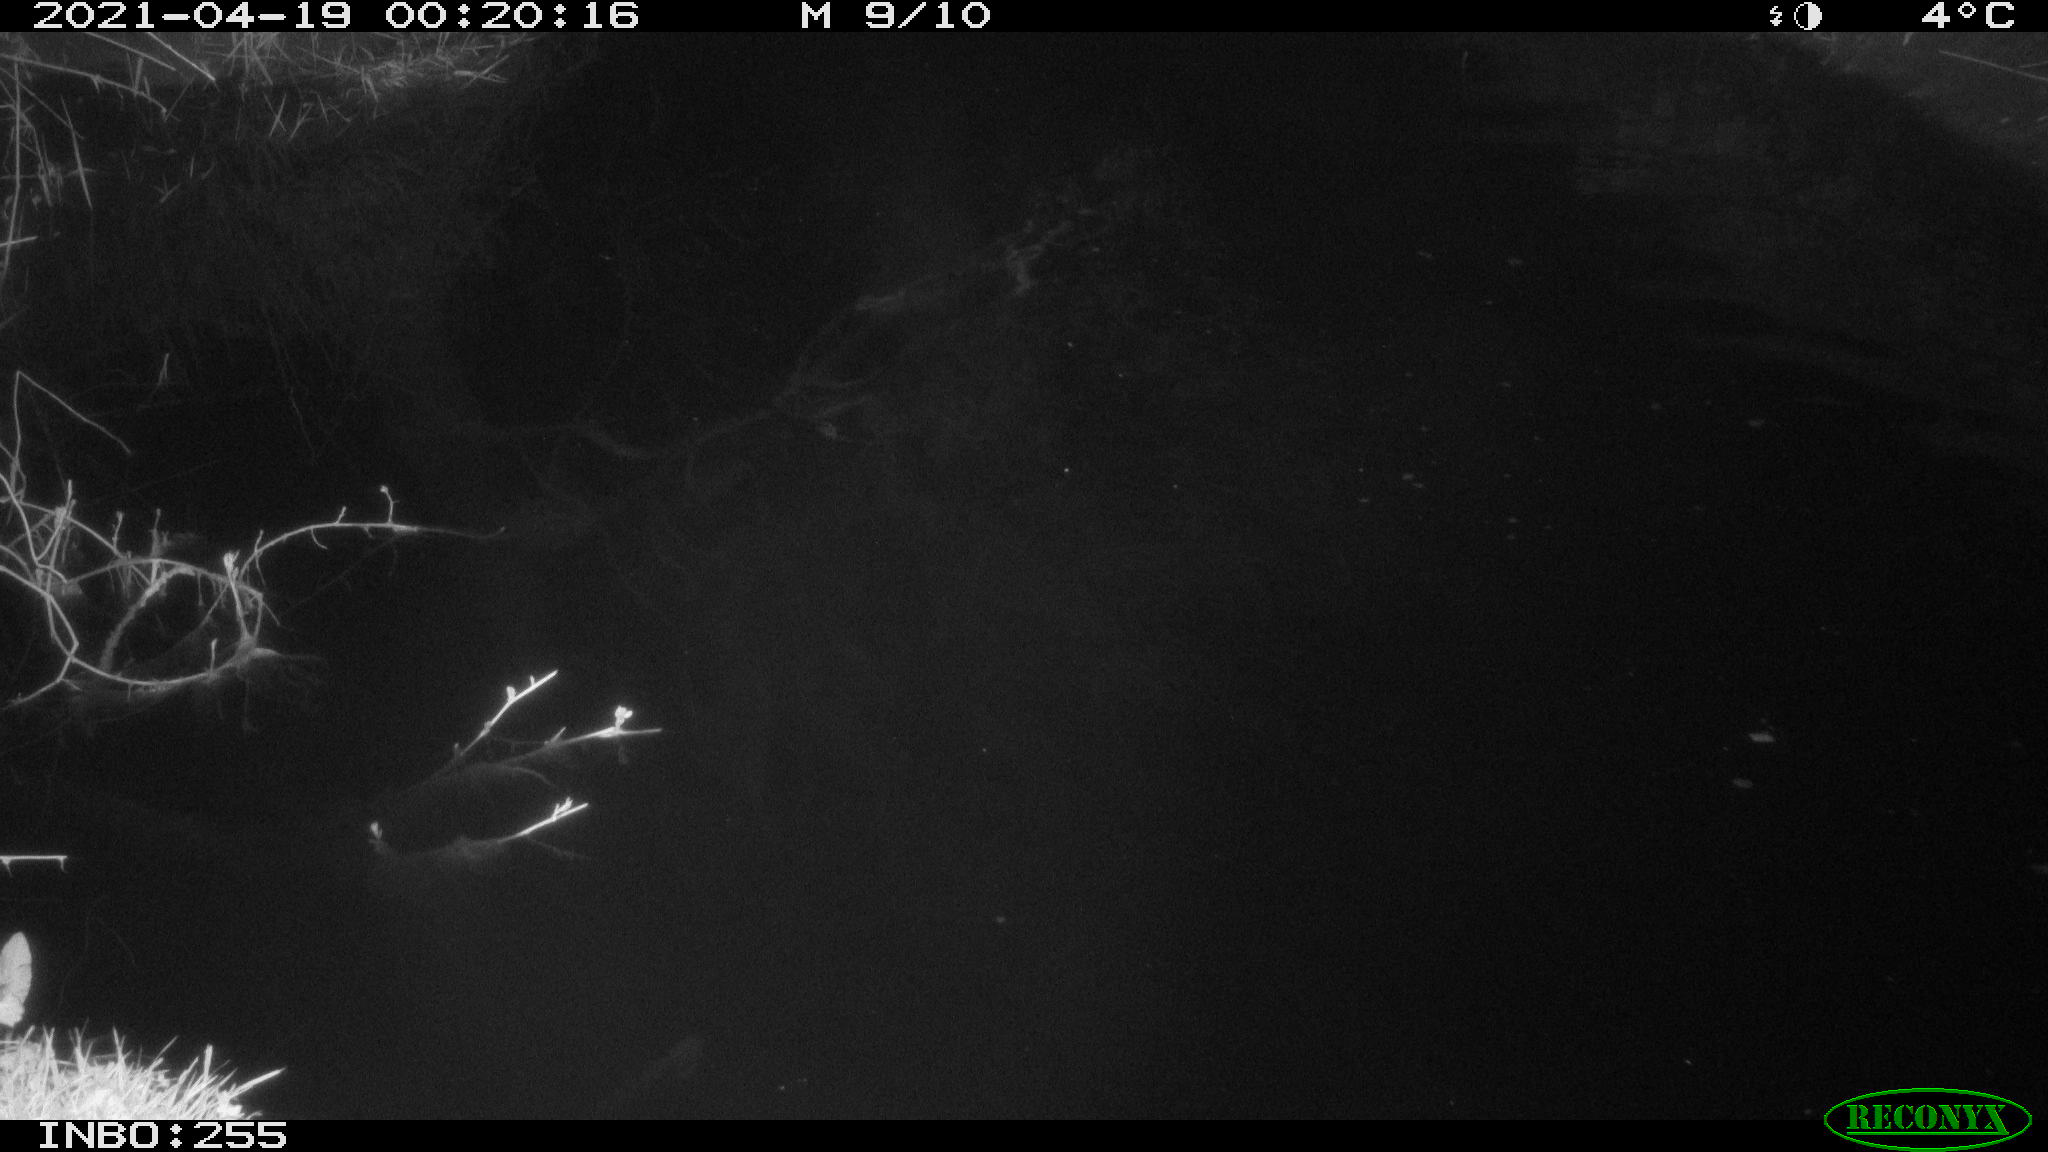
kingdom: Animalia
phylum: Chordata
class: Aves
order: Anseriformes
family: Anatidae
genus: Anas
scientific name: Anas platyrhynchos
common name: Mallard
